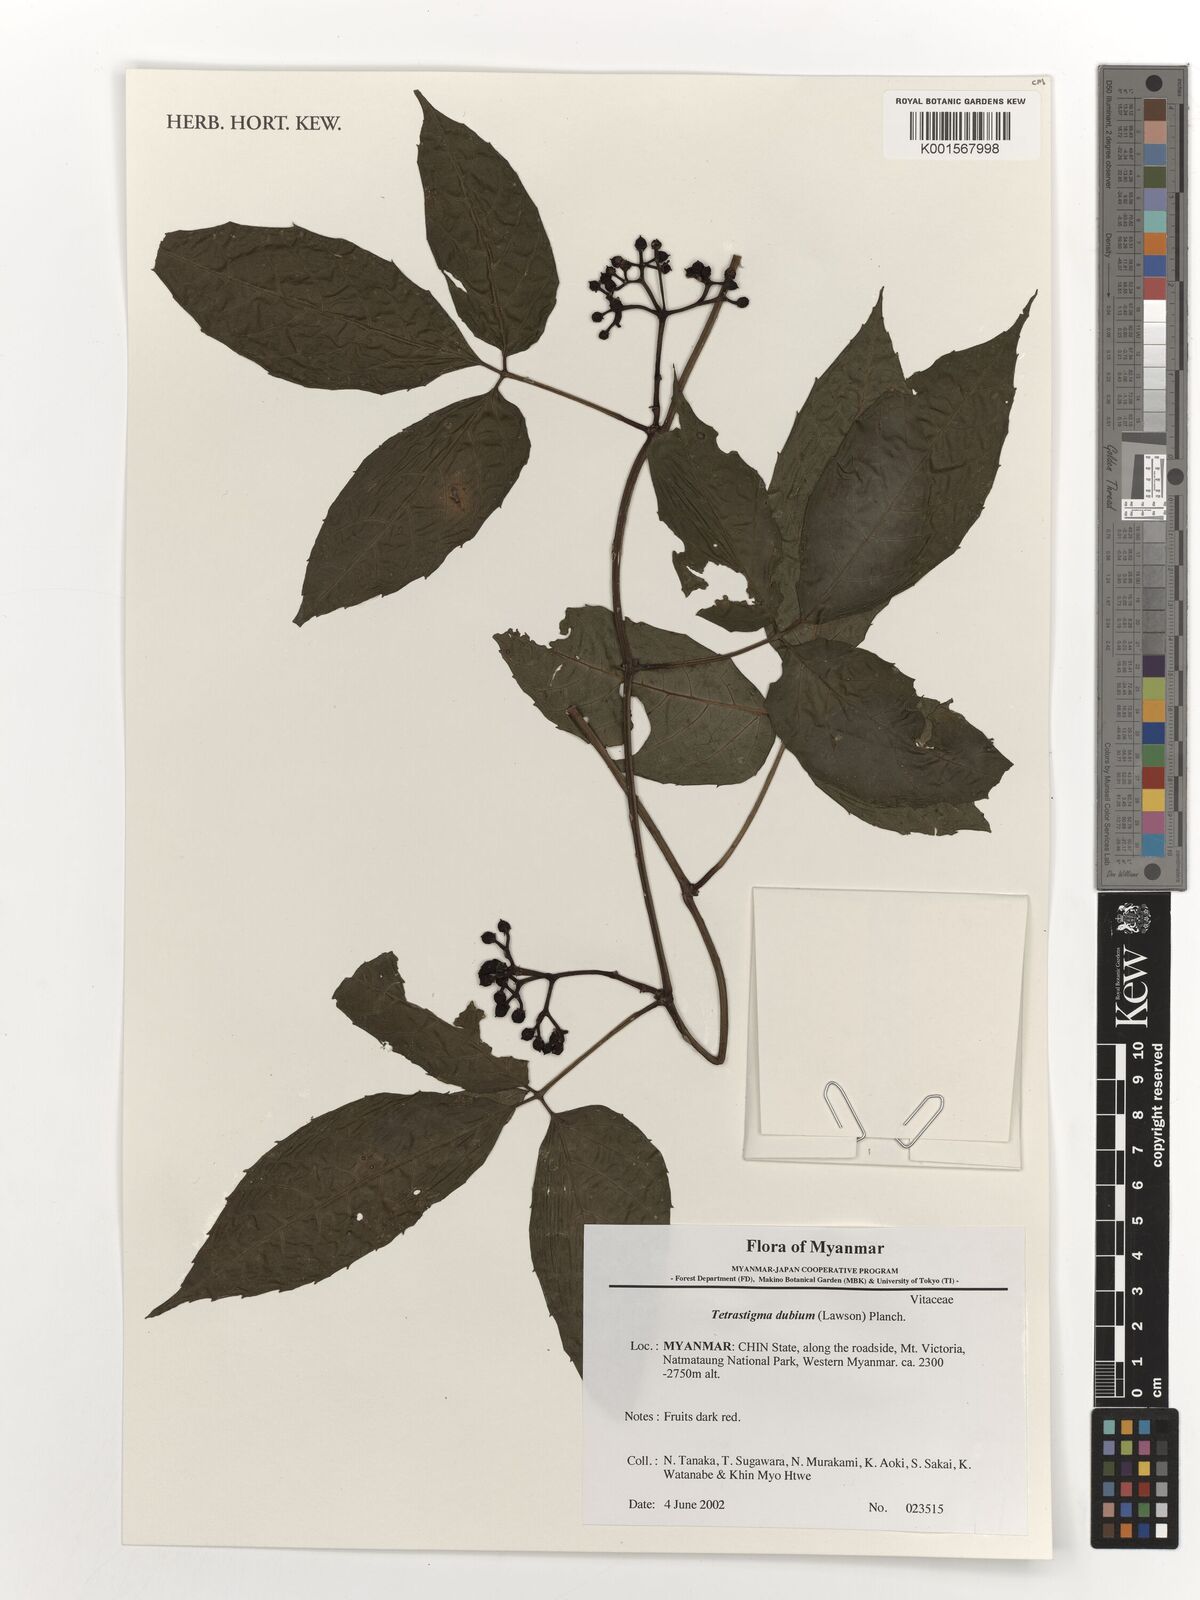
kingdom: Plantae
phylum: Tracheophyta
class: Magnoliopsida
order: Vitales
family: Vitaceae
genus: Tetrastigma
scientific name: Tetrastigma dubium
